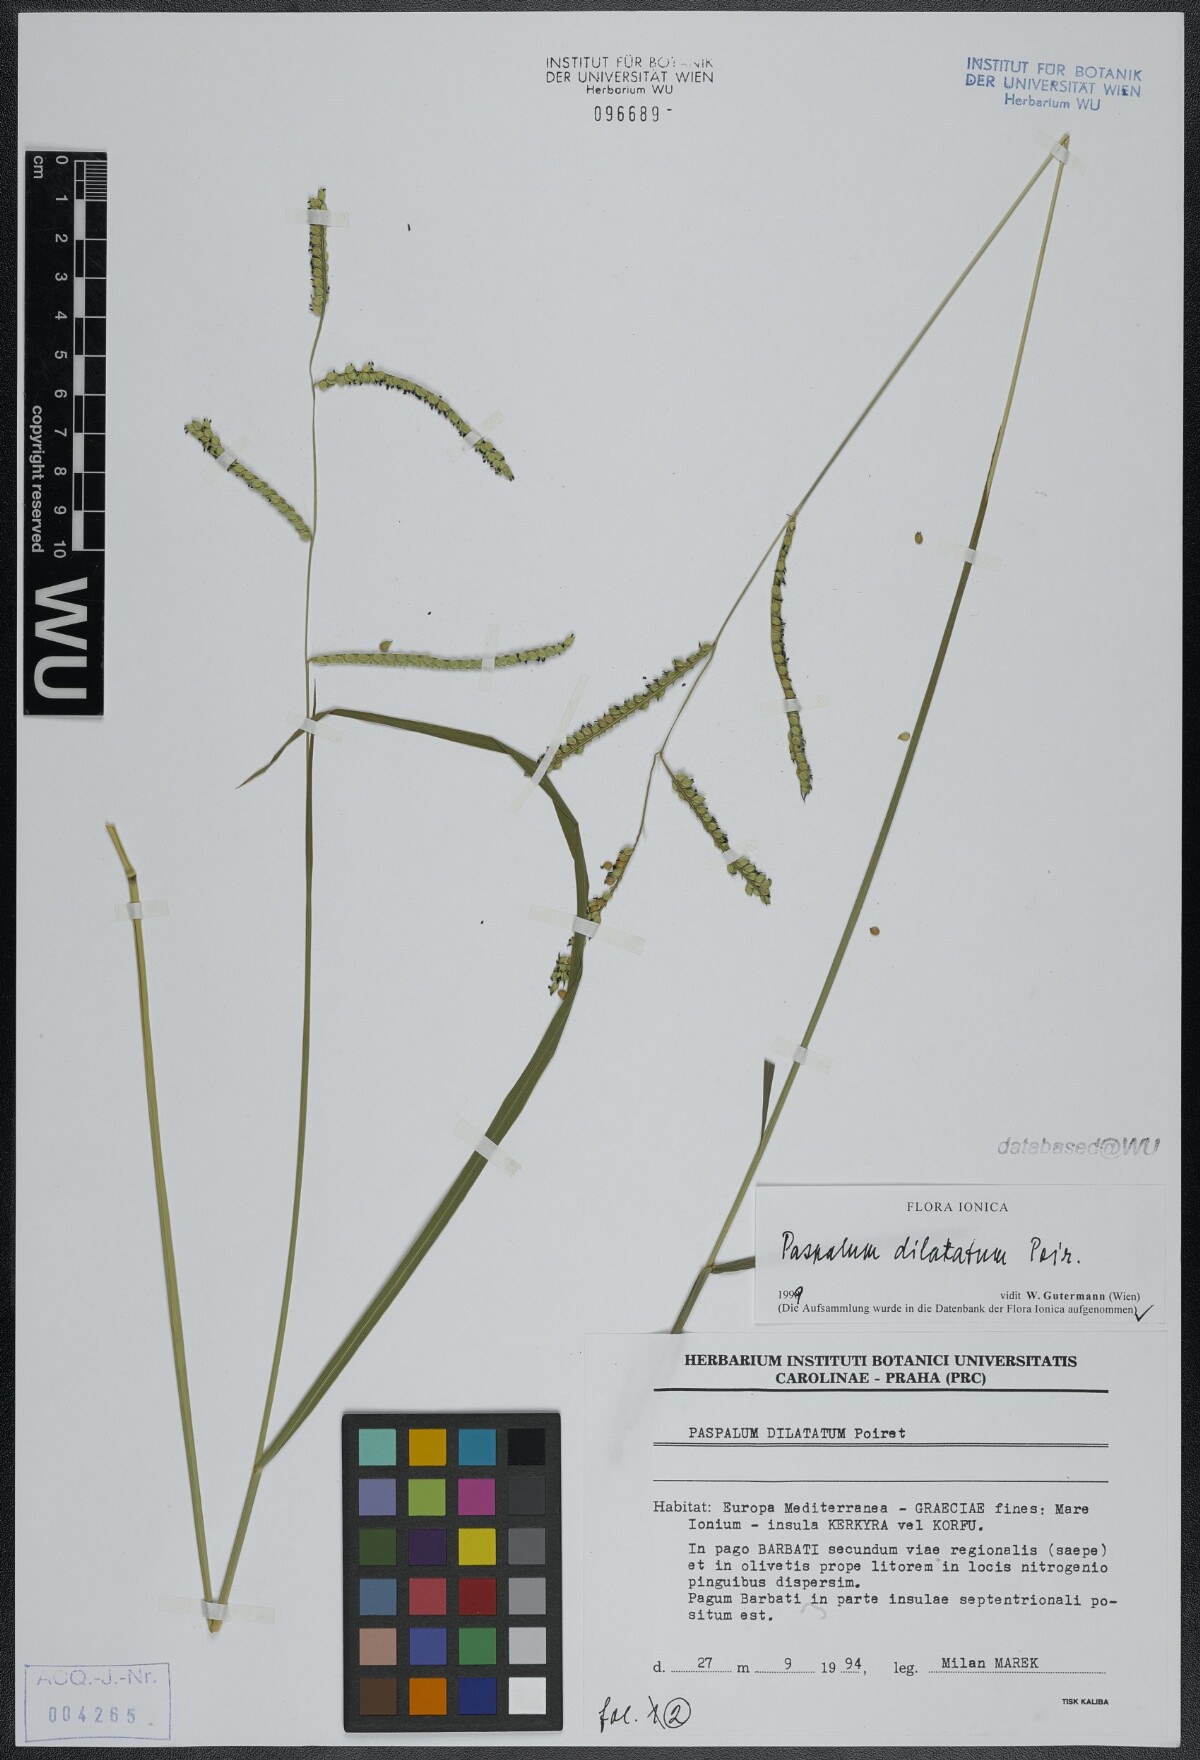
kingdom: Plantae
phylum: Tracheophyta
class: Liliopsida
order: Poales
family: Poaceae
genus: Paspalum
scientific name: Paspalum dilatatum
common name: Dallisgrass
